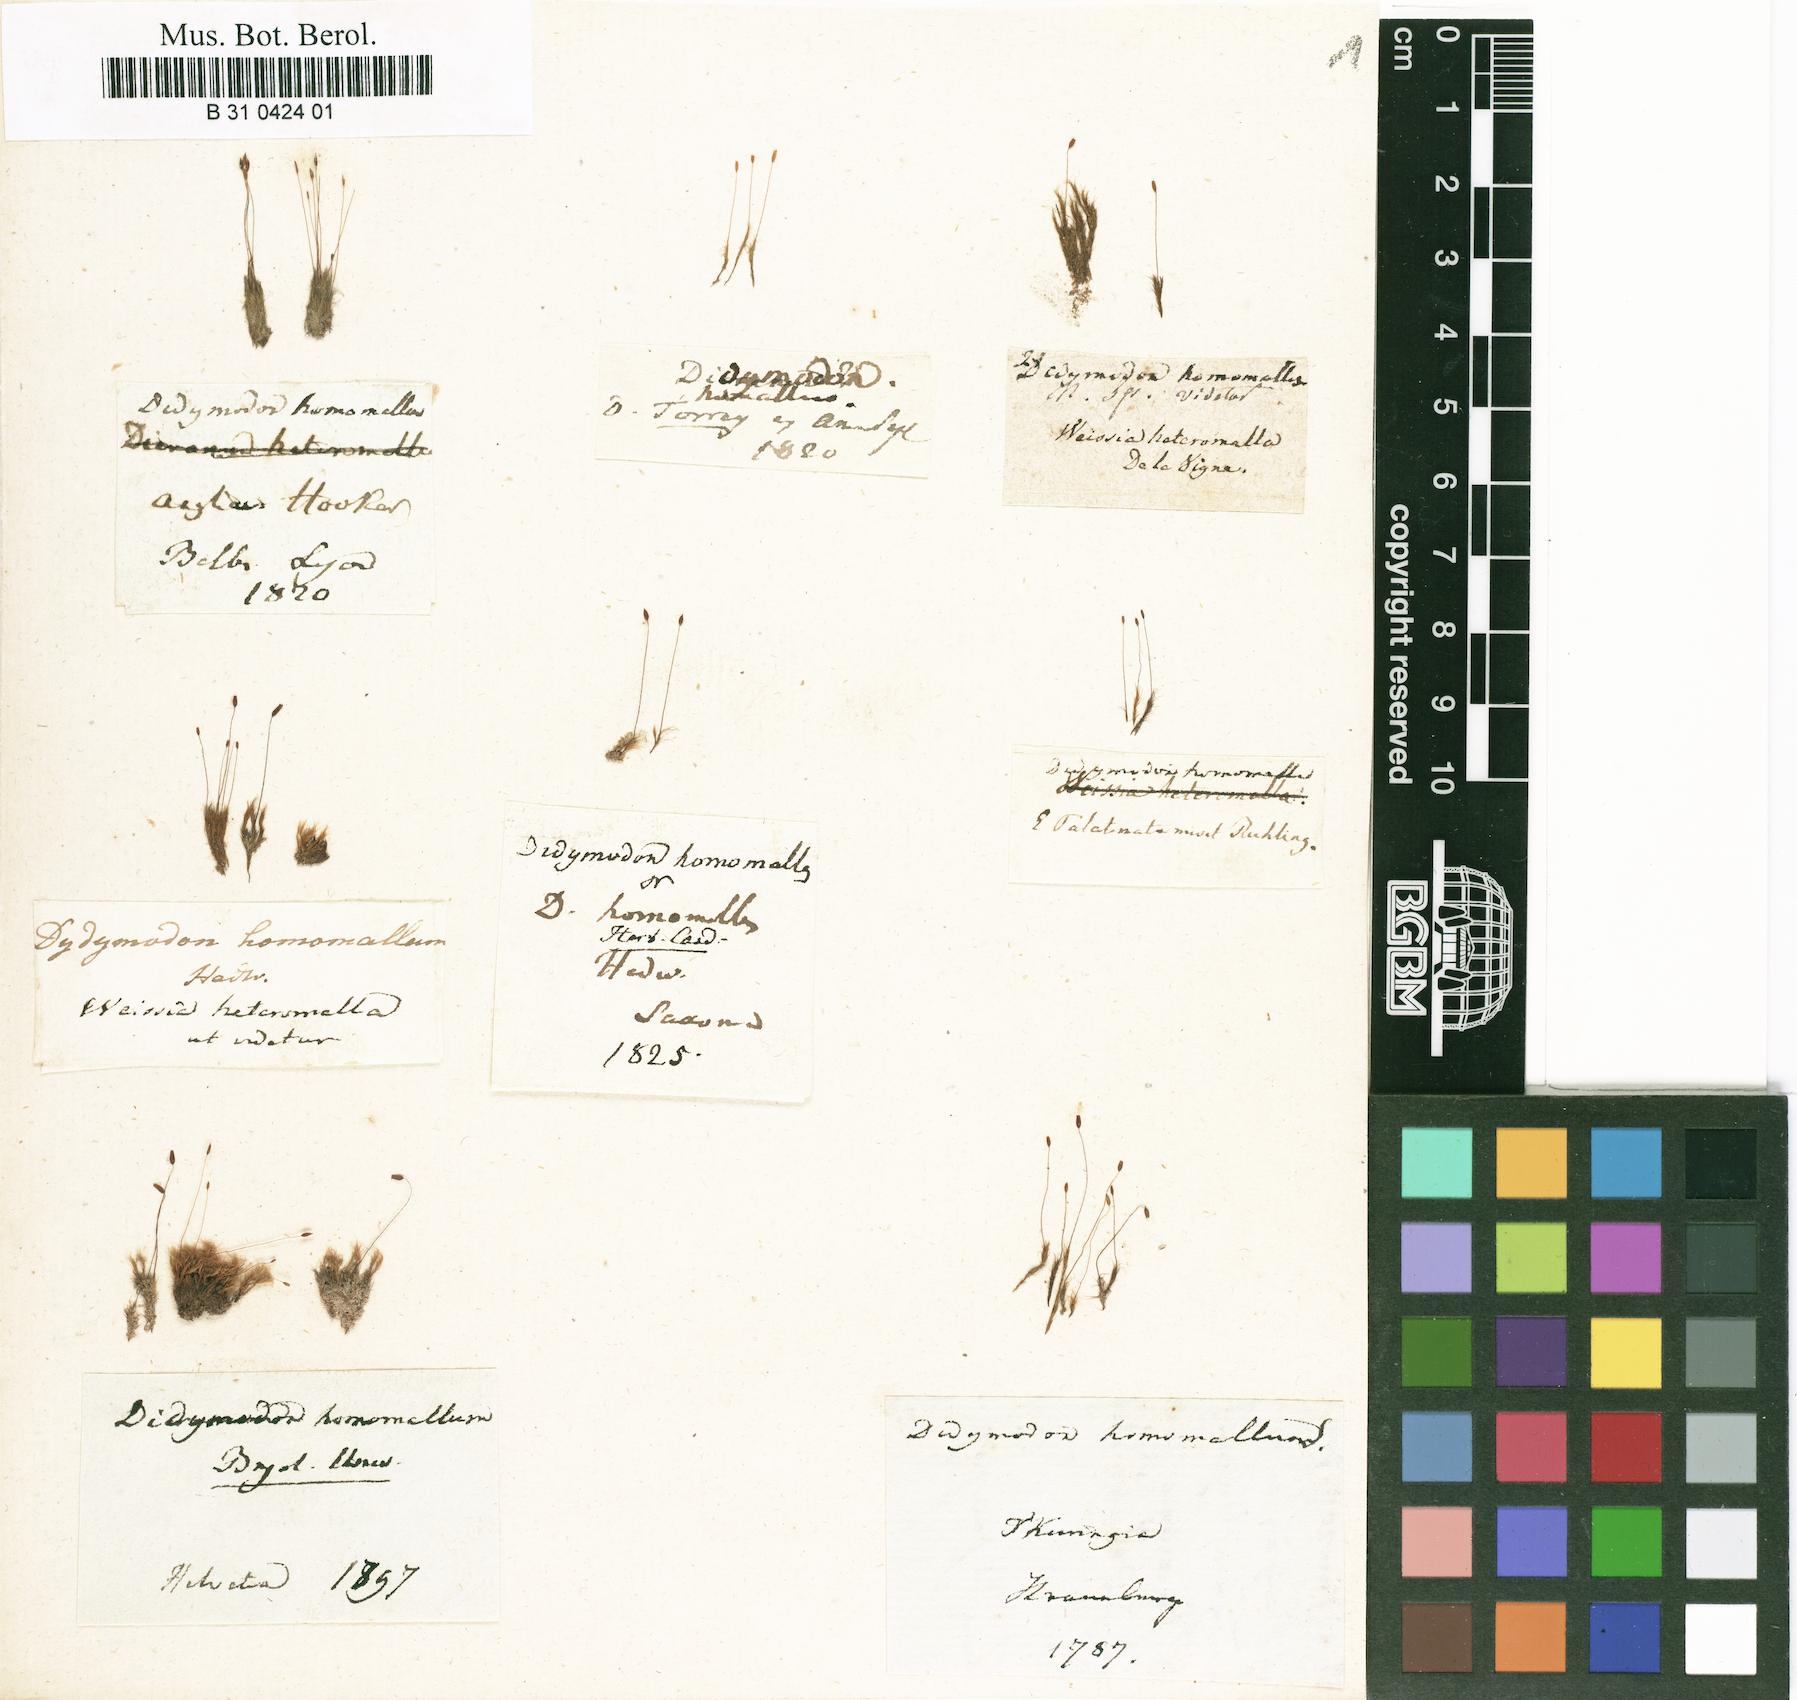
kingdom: Plantae
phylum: Bryophyta
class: Bryopsida
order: Dicranales
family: Ditrichaceae
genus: Ditrichum
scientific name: Ditrichum heteromallum
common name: Curve-leaved ditrichum
